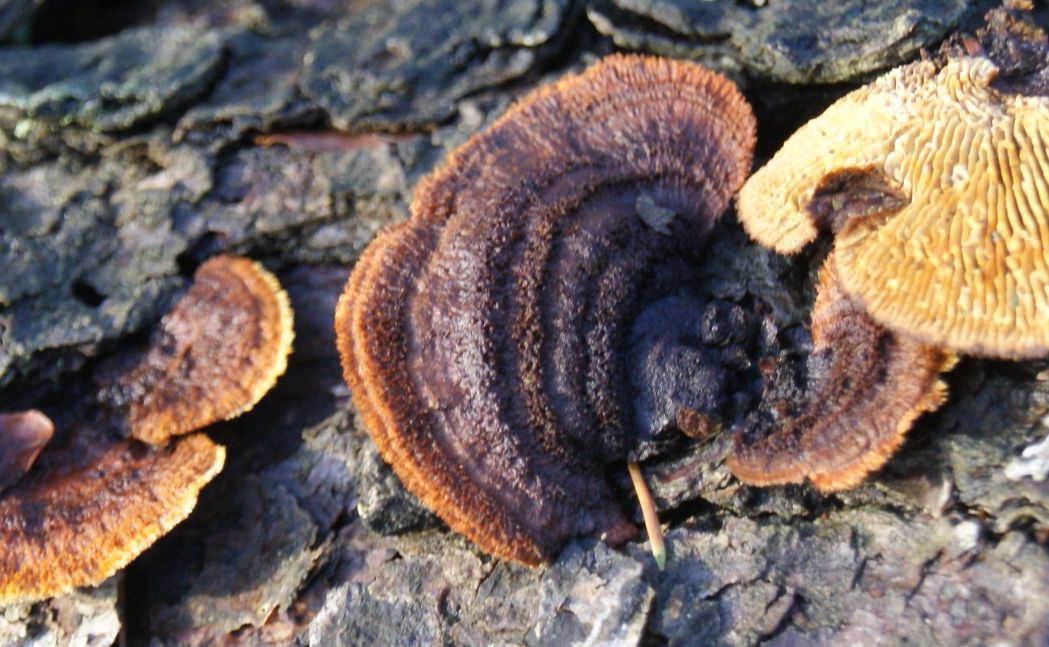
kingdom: Fungi
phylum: Basidiomycota
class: Agaricomycetes
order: Gloeophyllales
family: Gloeophyllaceae
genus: Gloeophyllum
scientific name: Gloeophyllum sepiarium
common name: fyrre-korkhat
